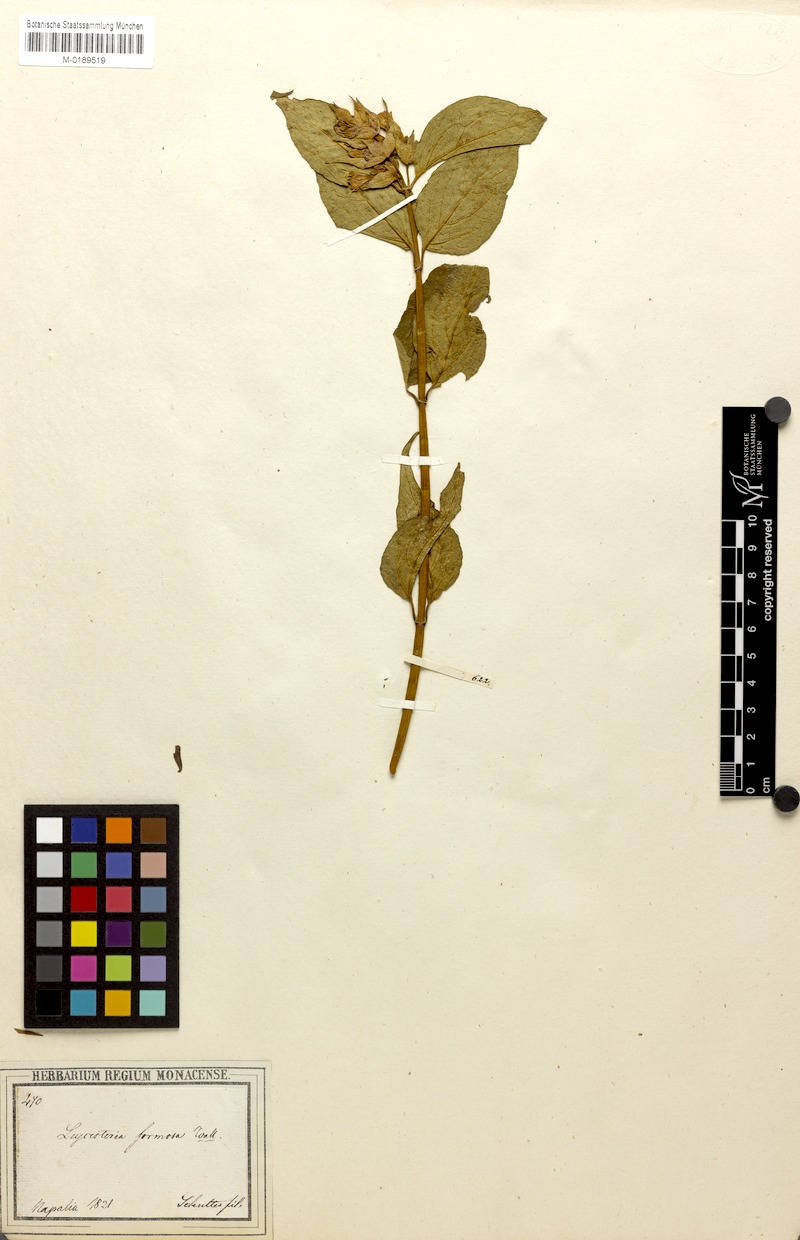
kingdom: Plantae
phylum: Tracheophyta
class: Magnoliopsida
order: Dipsacales
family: Caprifoliaceae
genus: Leycesteria
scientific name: Leycesteria formosa
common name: Himalayan honeysuckle
